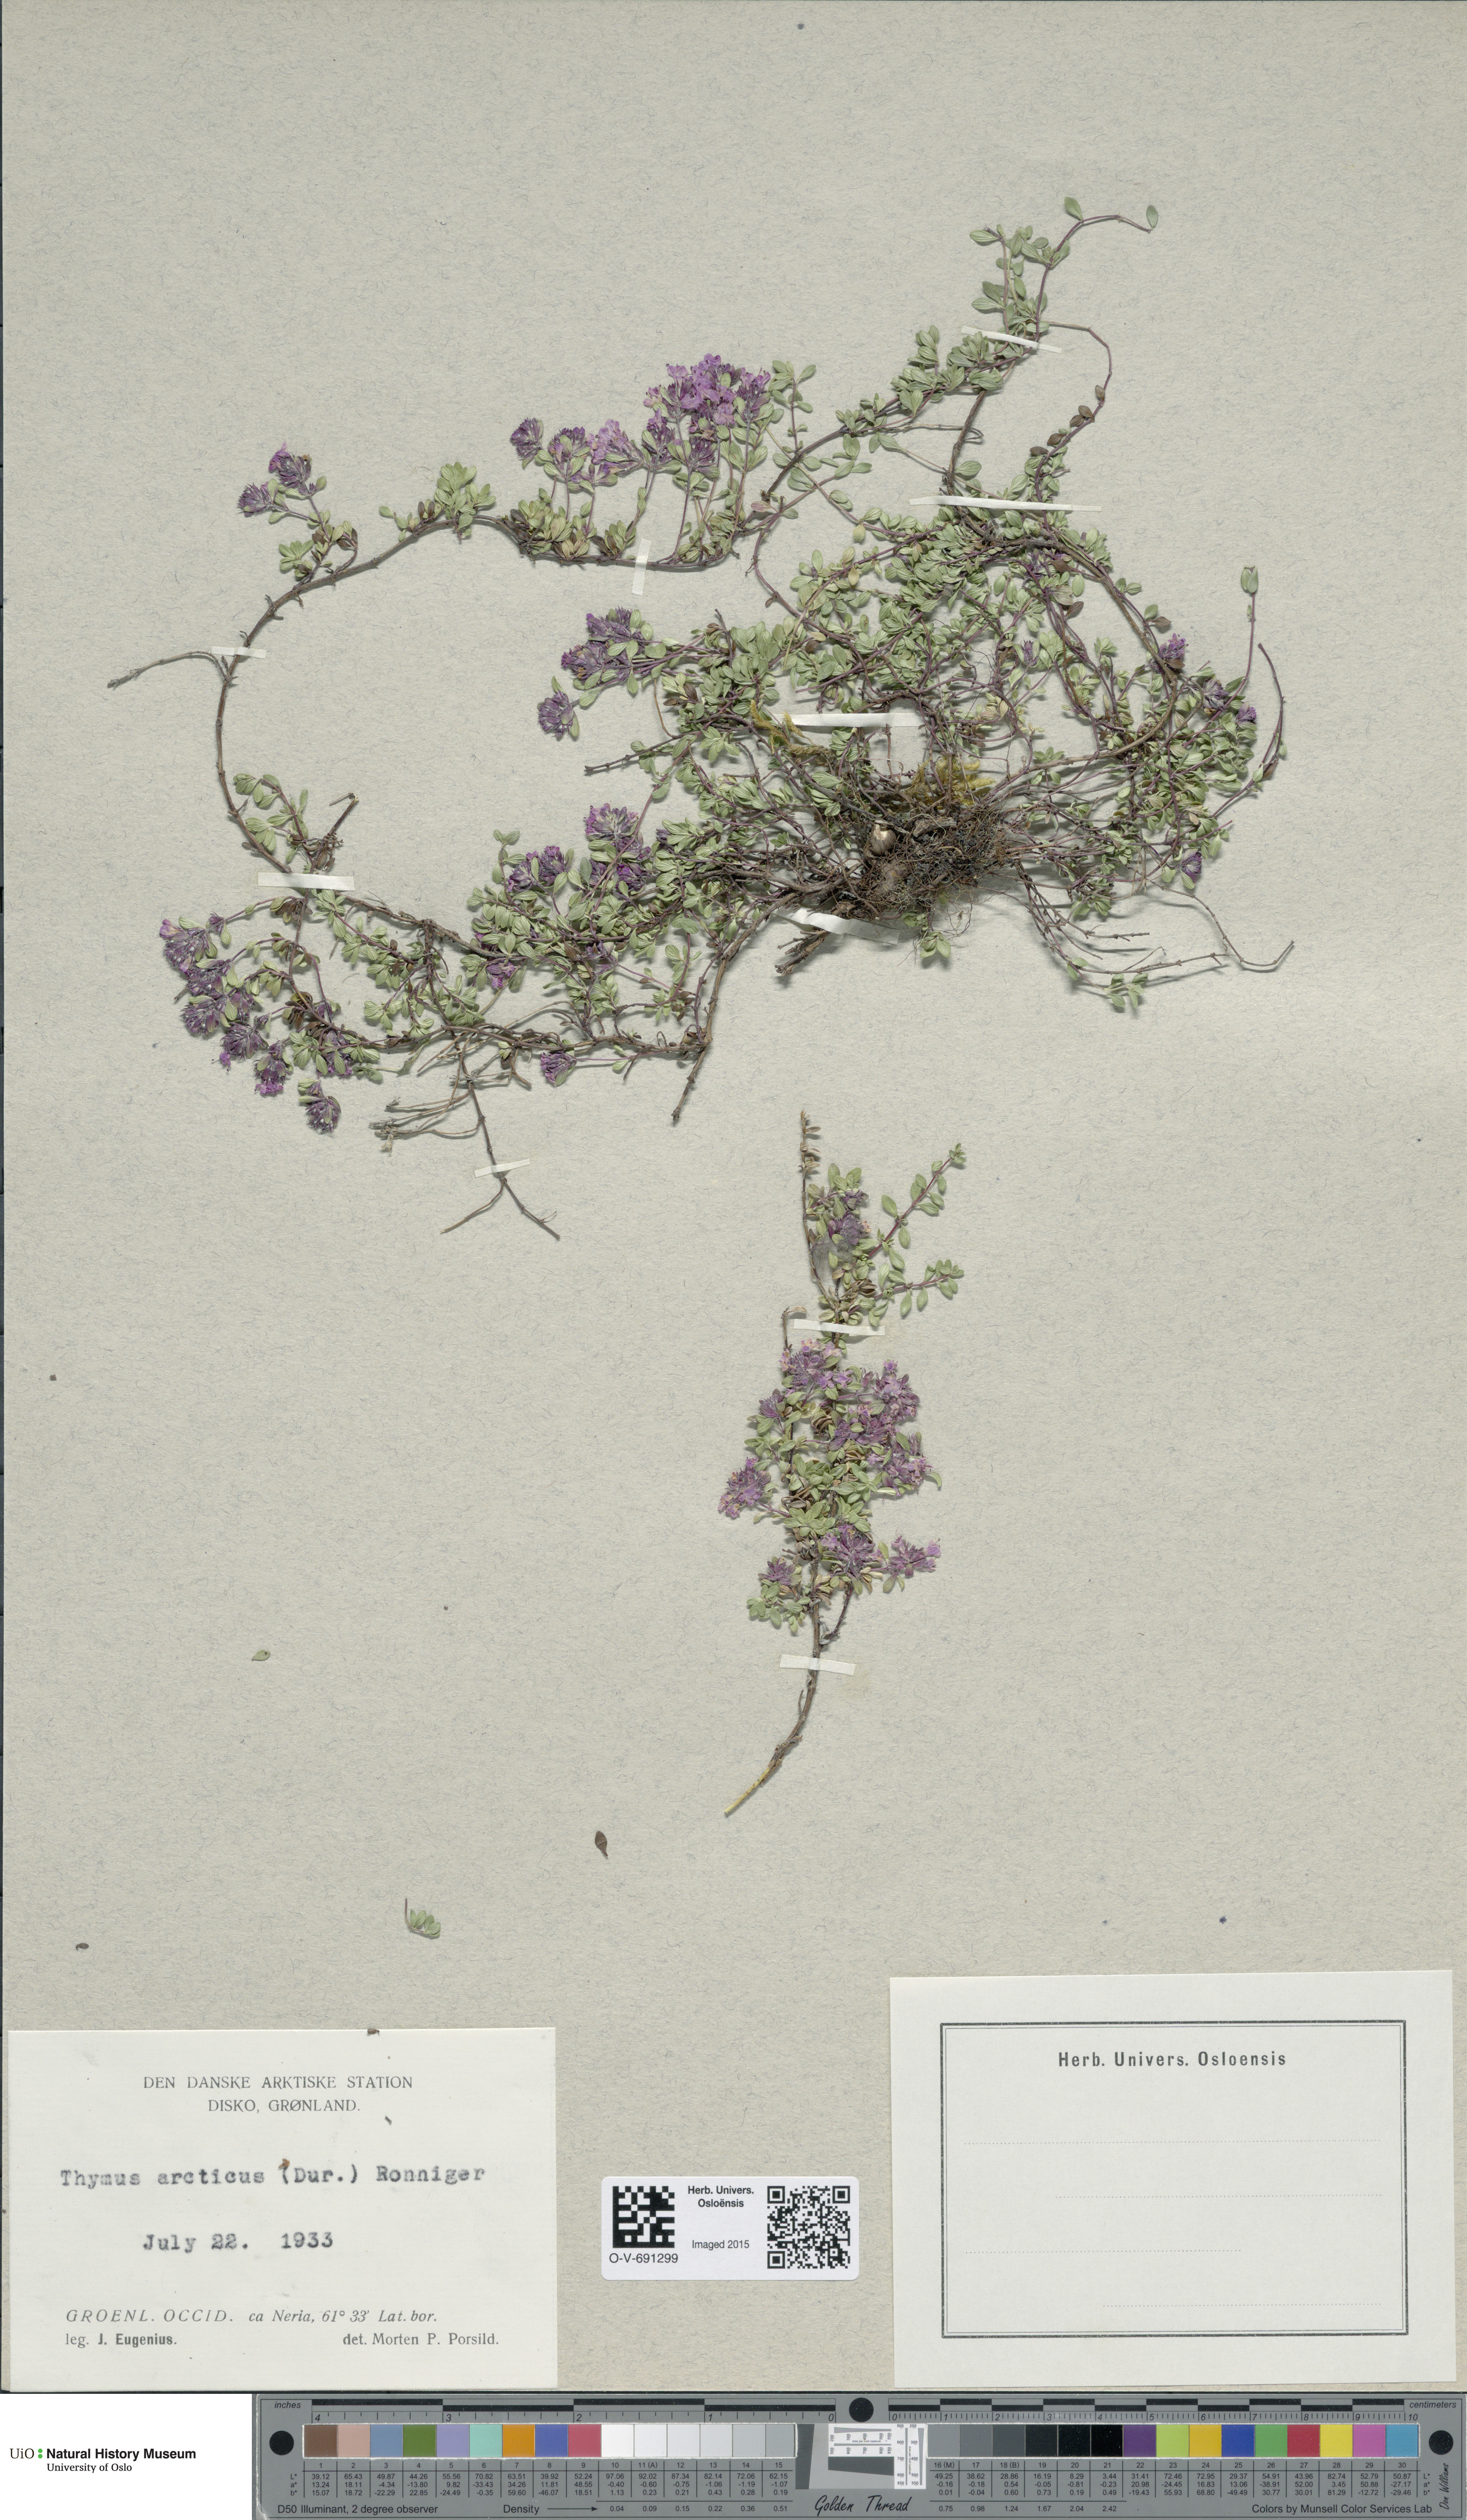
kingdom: Plantae
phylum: Tracheophyta
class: Magnoliopsida
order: Lamiales
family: Lamiaceae
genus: Thymus
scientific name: Thymus praecox
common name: Wild thyme
